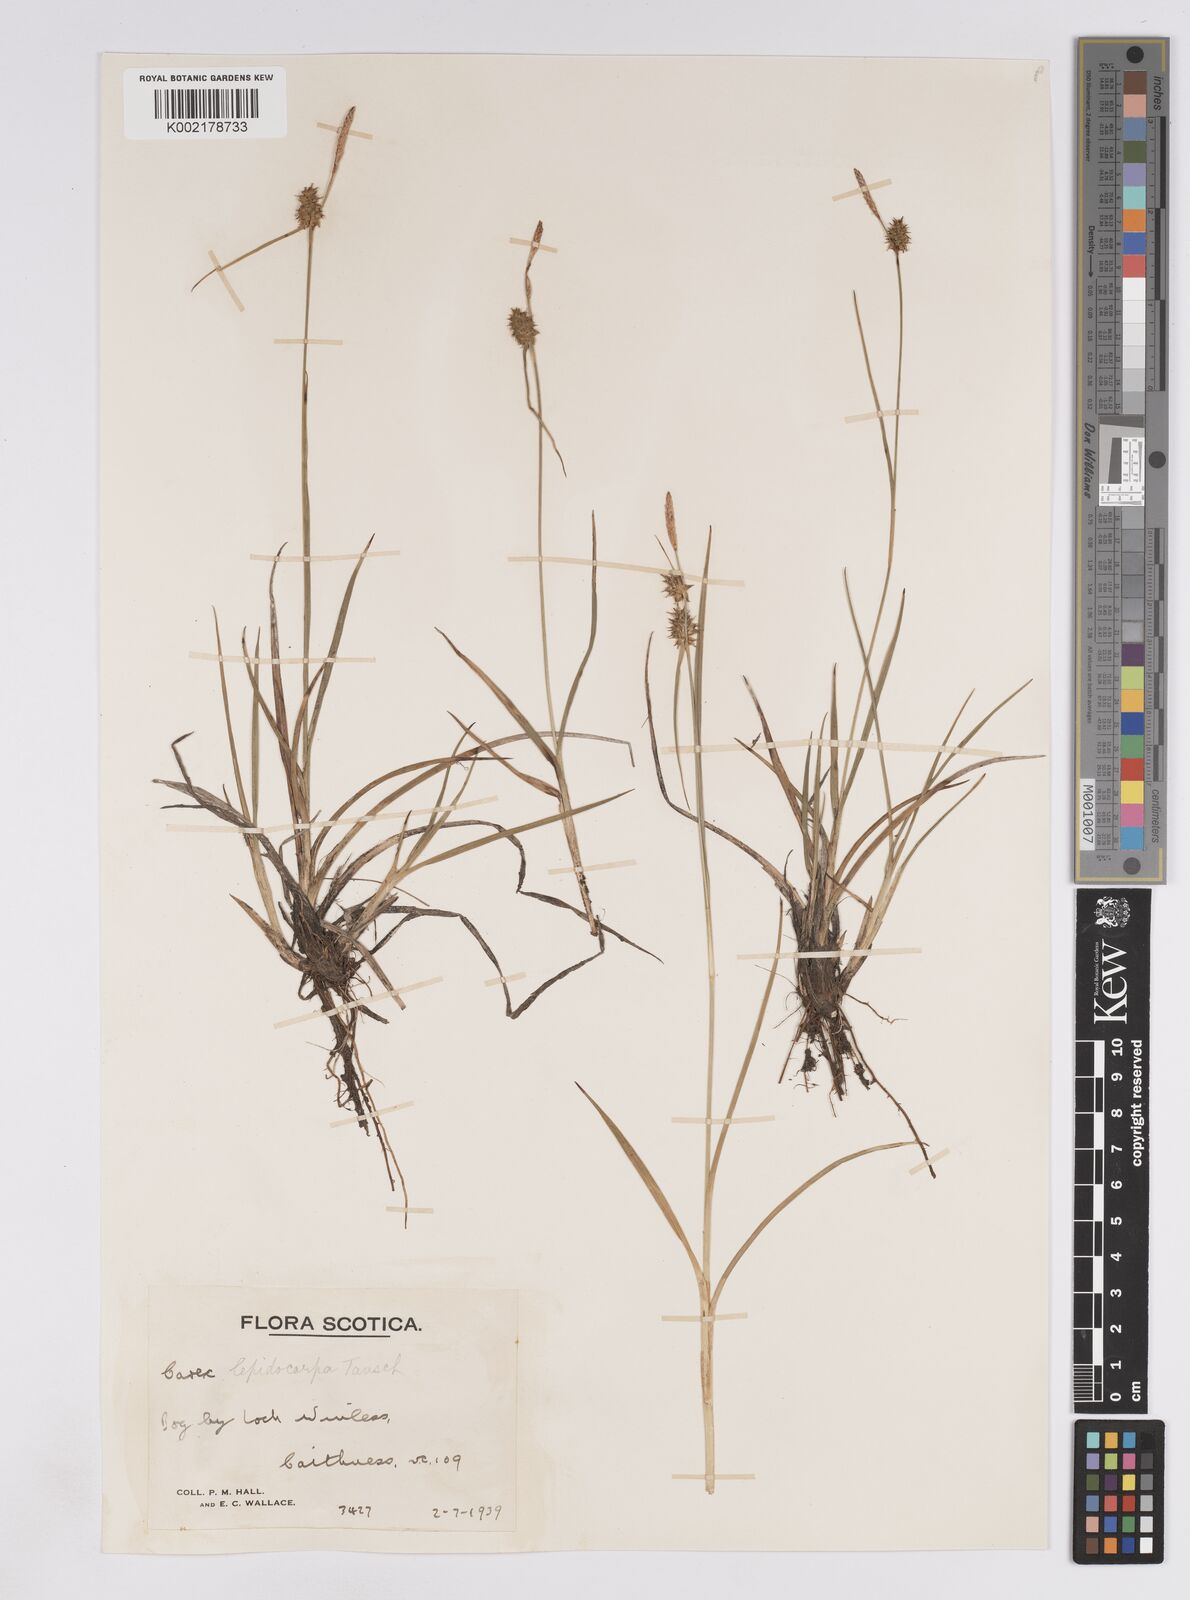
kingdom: Plantae
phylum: Tracheophyta
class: Liliopsida
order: Poales
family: Cyperaceae
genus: Carex
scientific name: Carex lepidocarpa
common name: Long-stalked yellow-sedge
